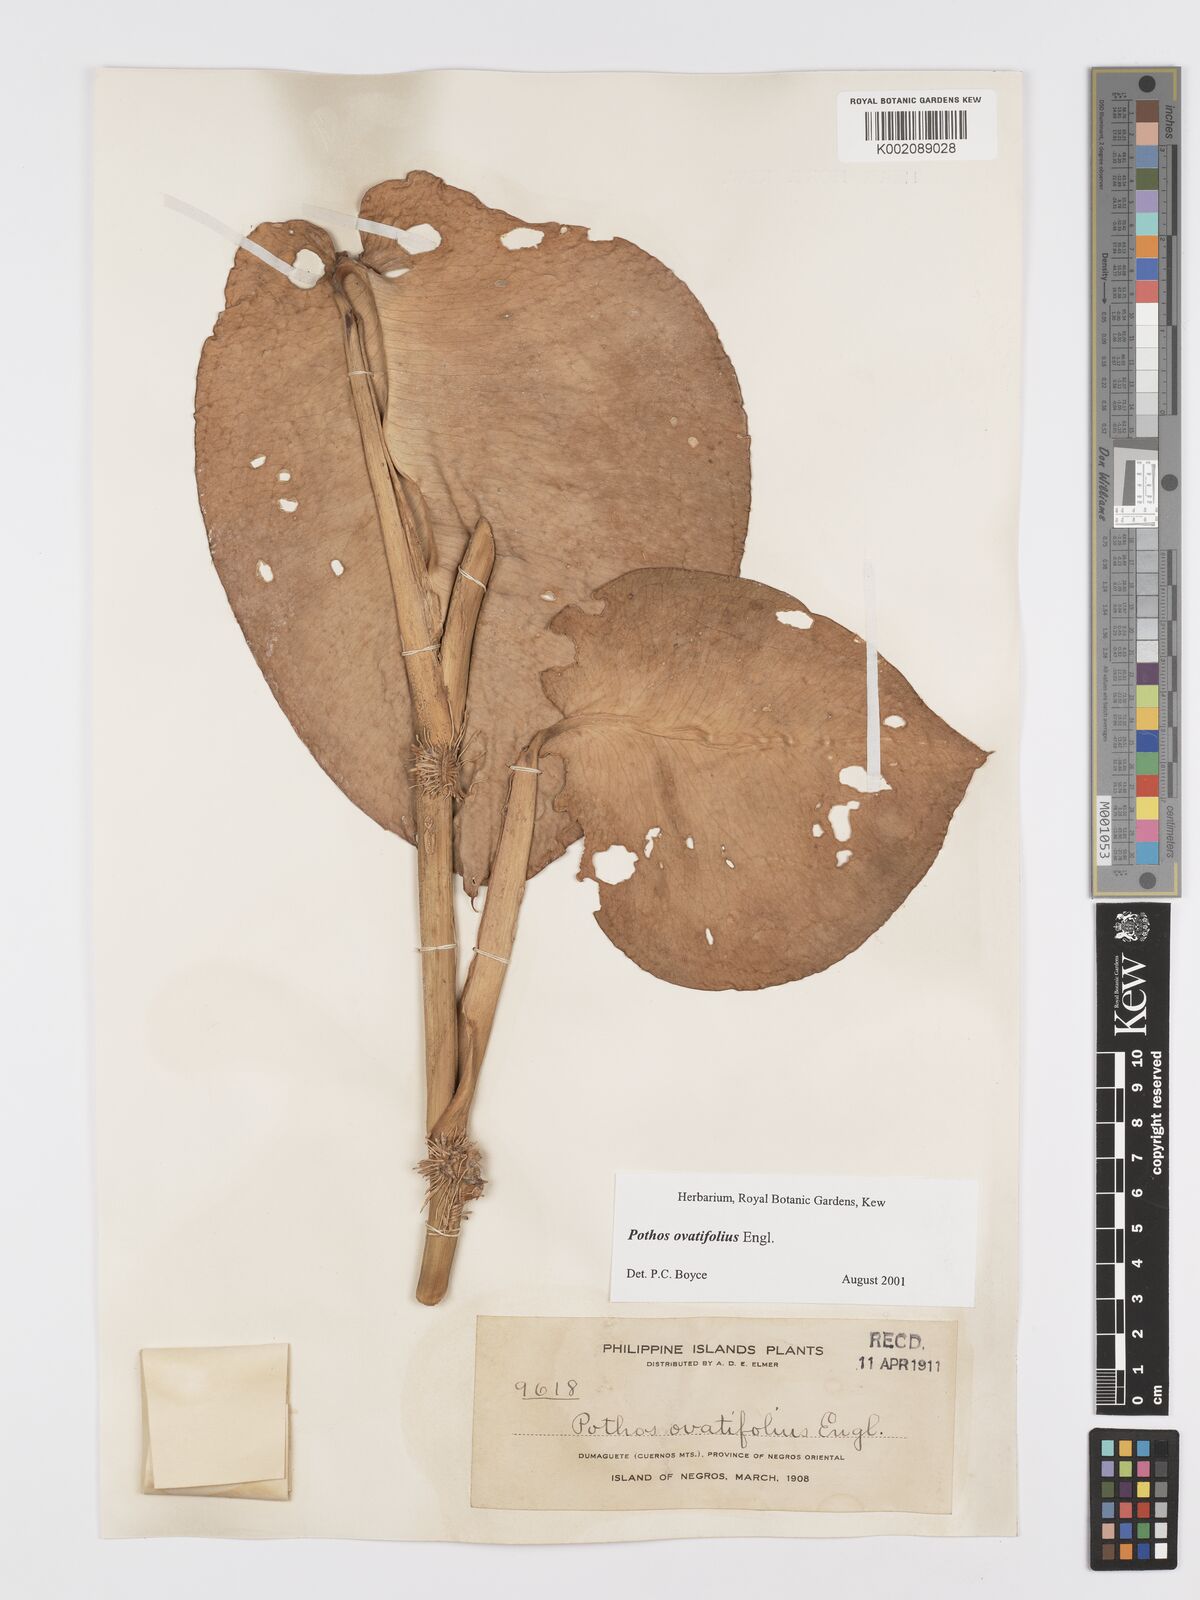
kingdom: Plantae
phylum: Tracheophyta
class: Liliopsida
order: Alismatales
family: Araceae
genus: Pothos
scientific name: Pothos ovatifolius
